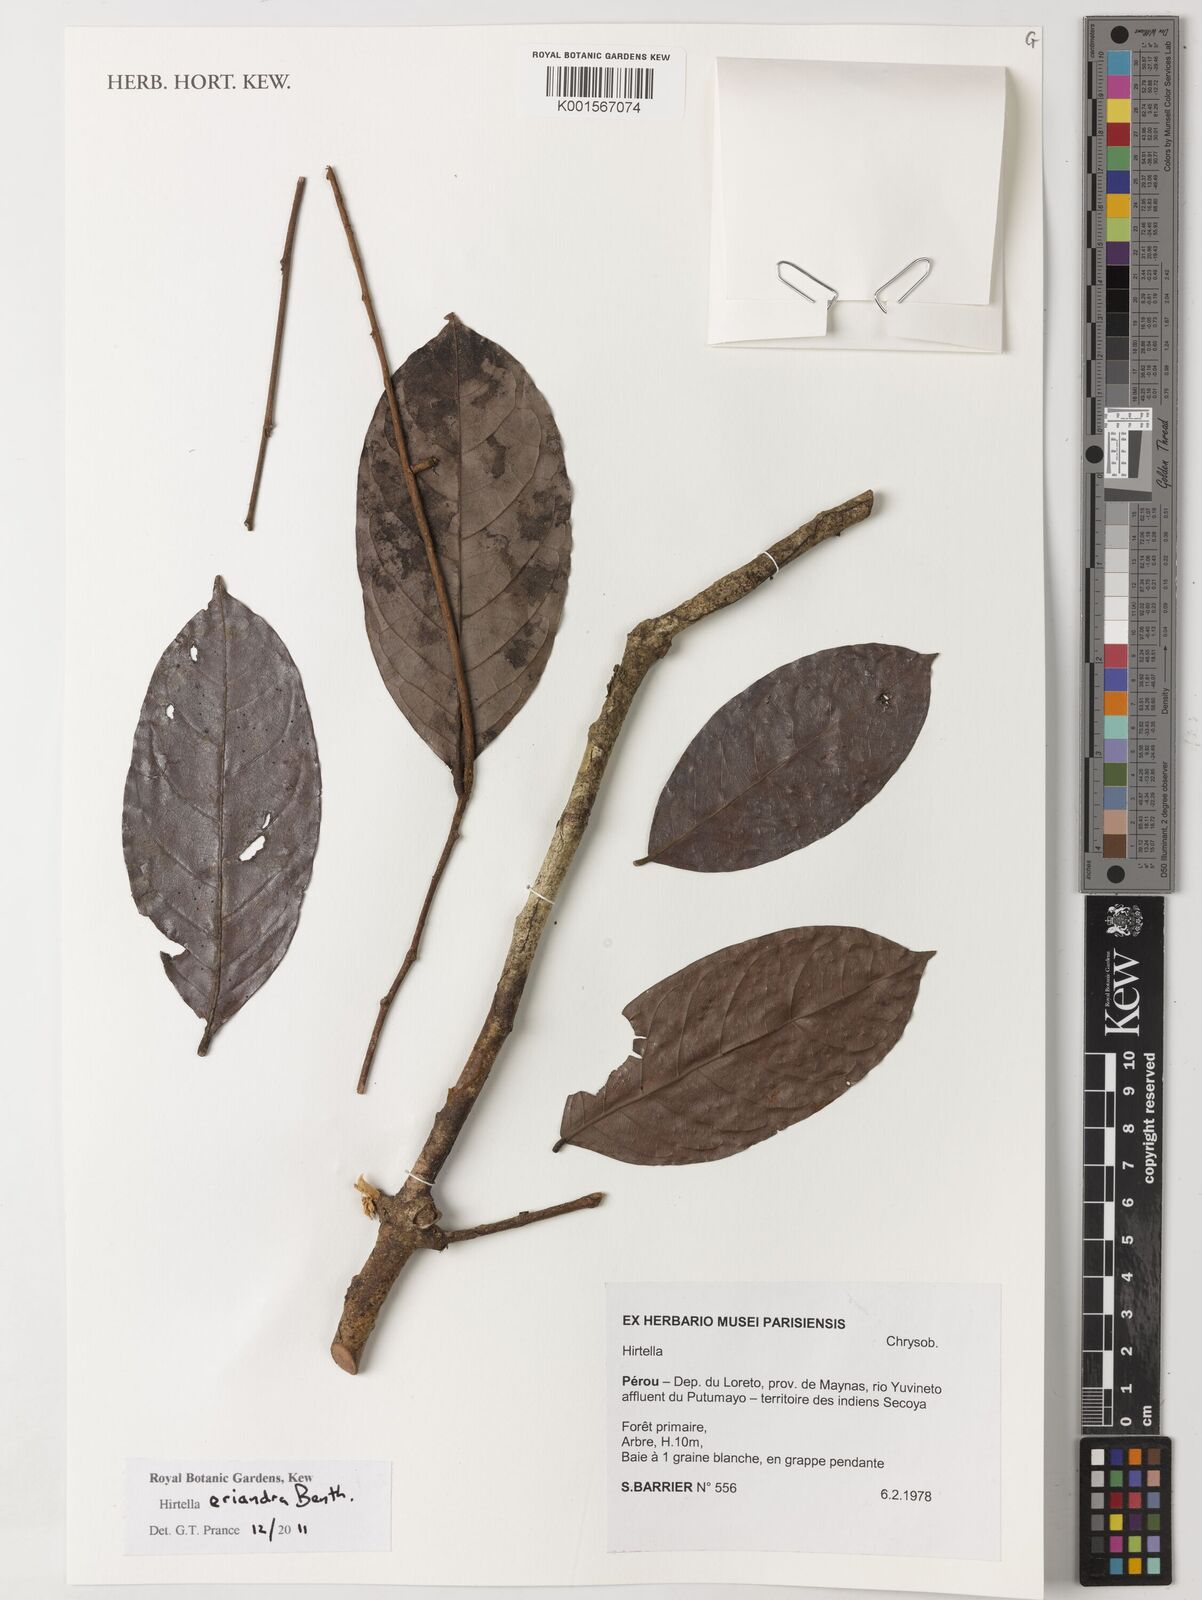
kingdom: Plantae
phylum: Tracheophyta
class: Magnoliopsida
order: Malpighiales
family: Chrysobalanaceae
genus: Hirtella
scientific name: Hirtella eriandra
